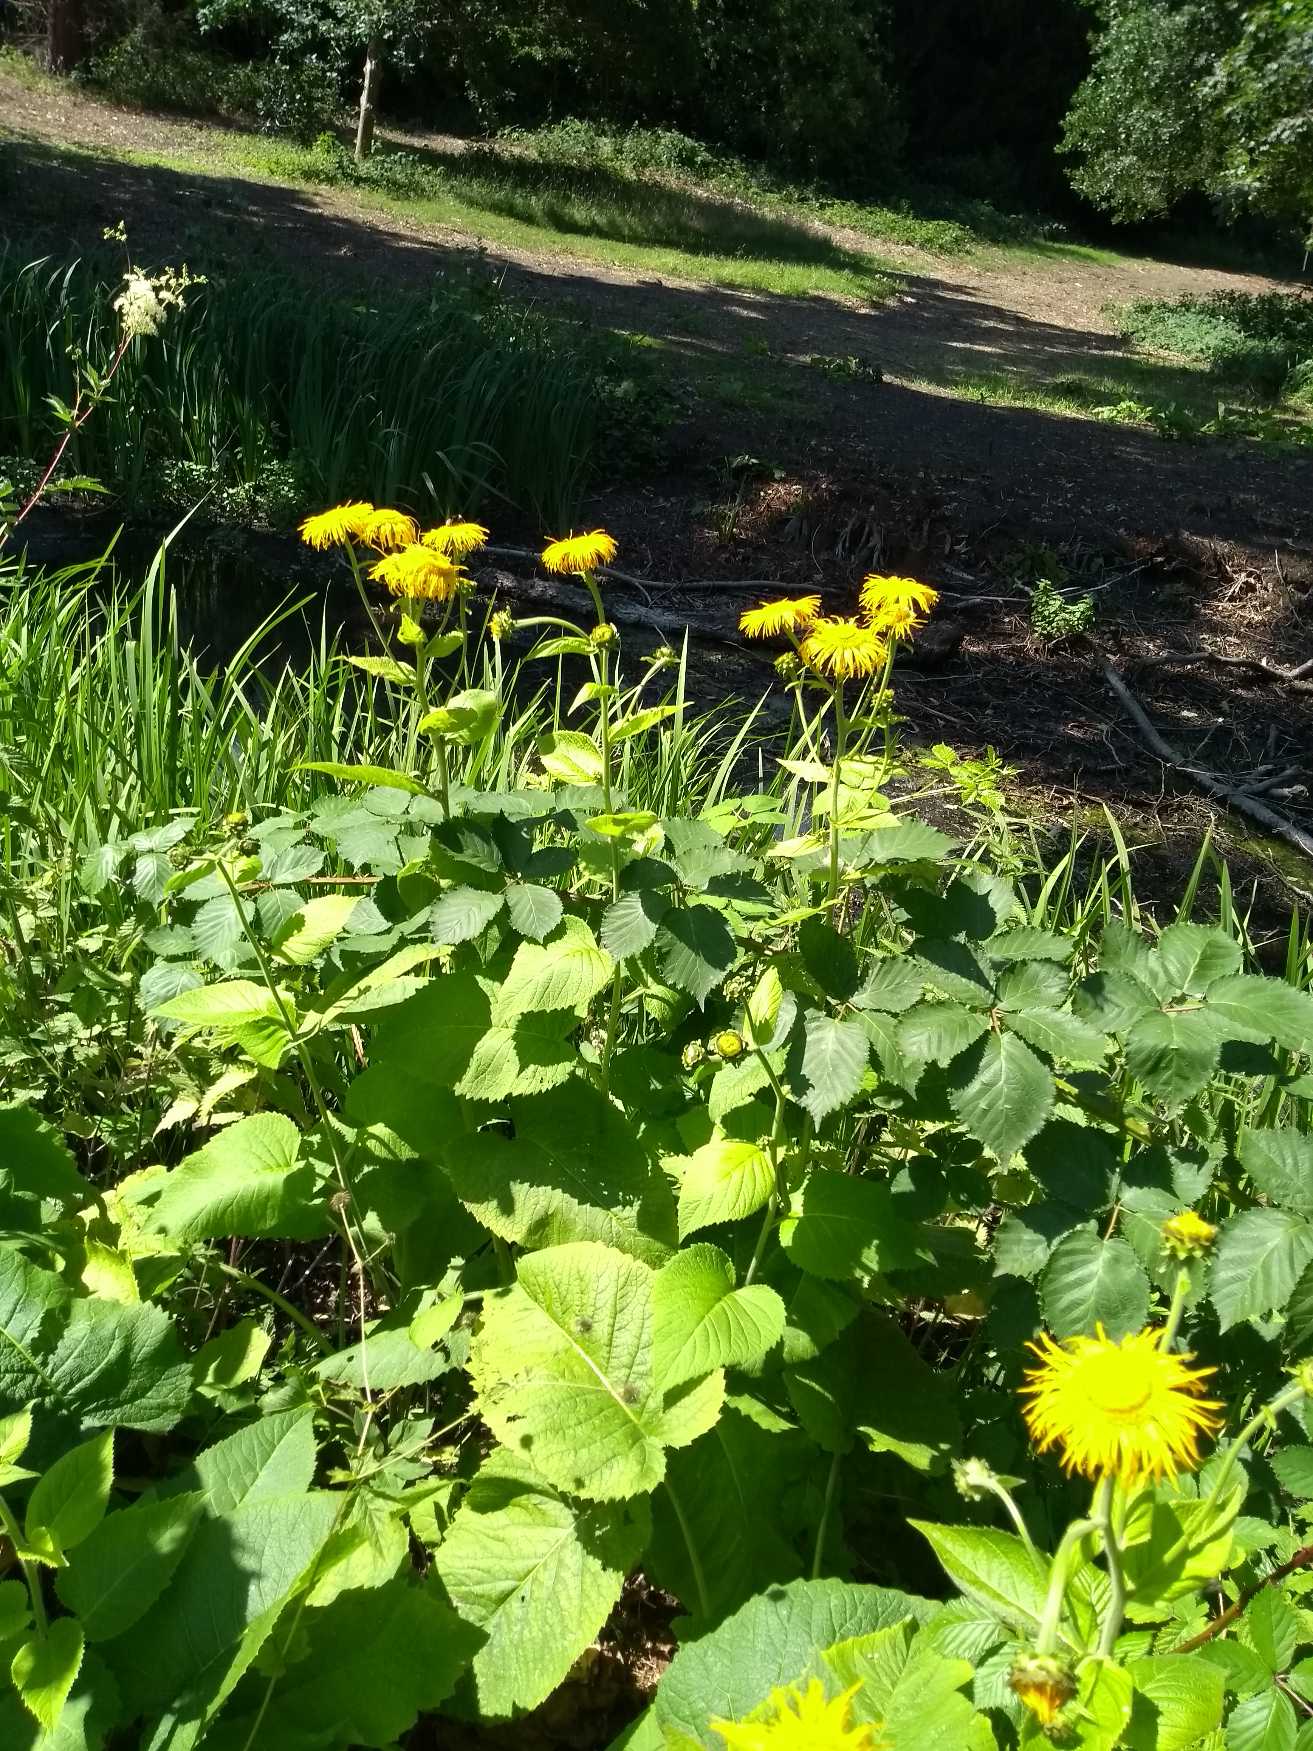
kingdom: Plantae
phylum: Tracheophyta
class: Magnoliopsida
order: Asterales
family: Asteraceae
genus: Telekia
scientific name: Telekia speciosa
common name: Tusindstråle
